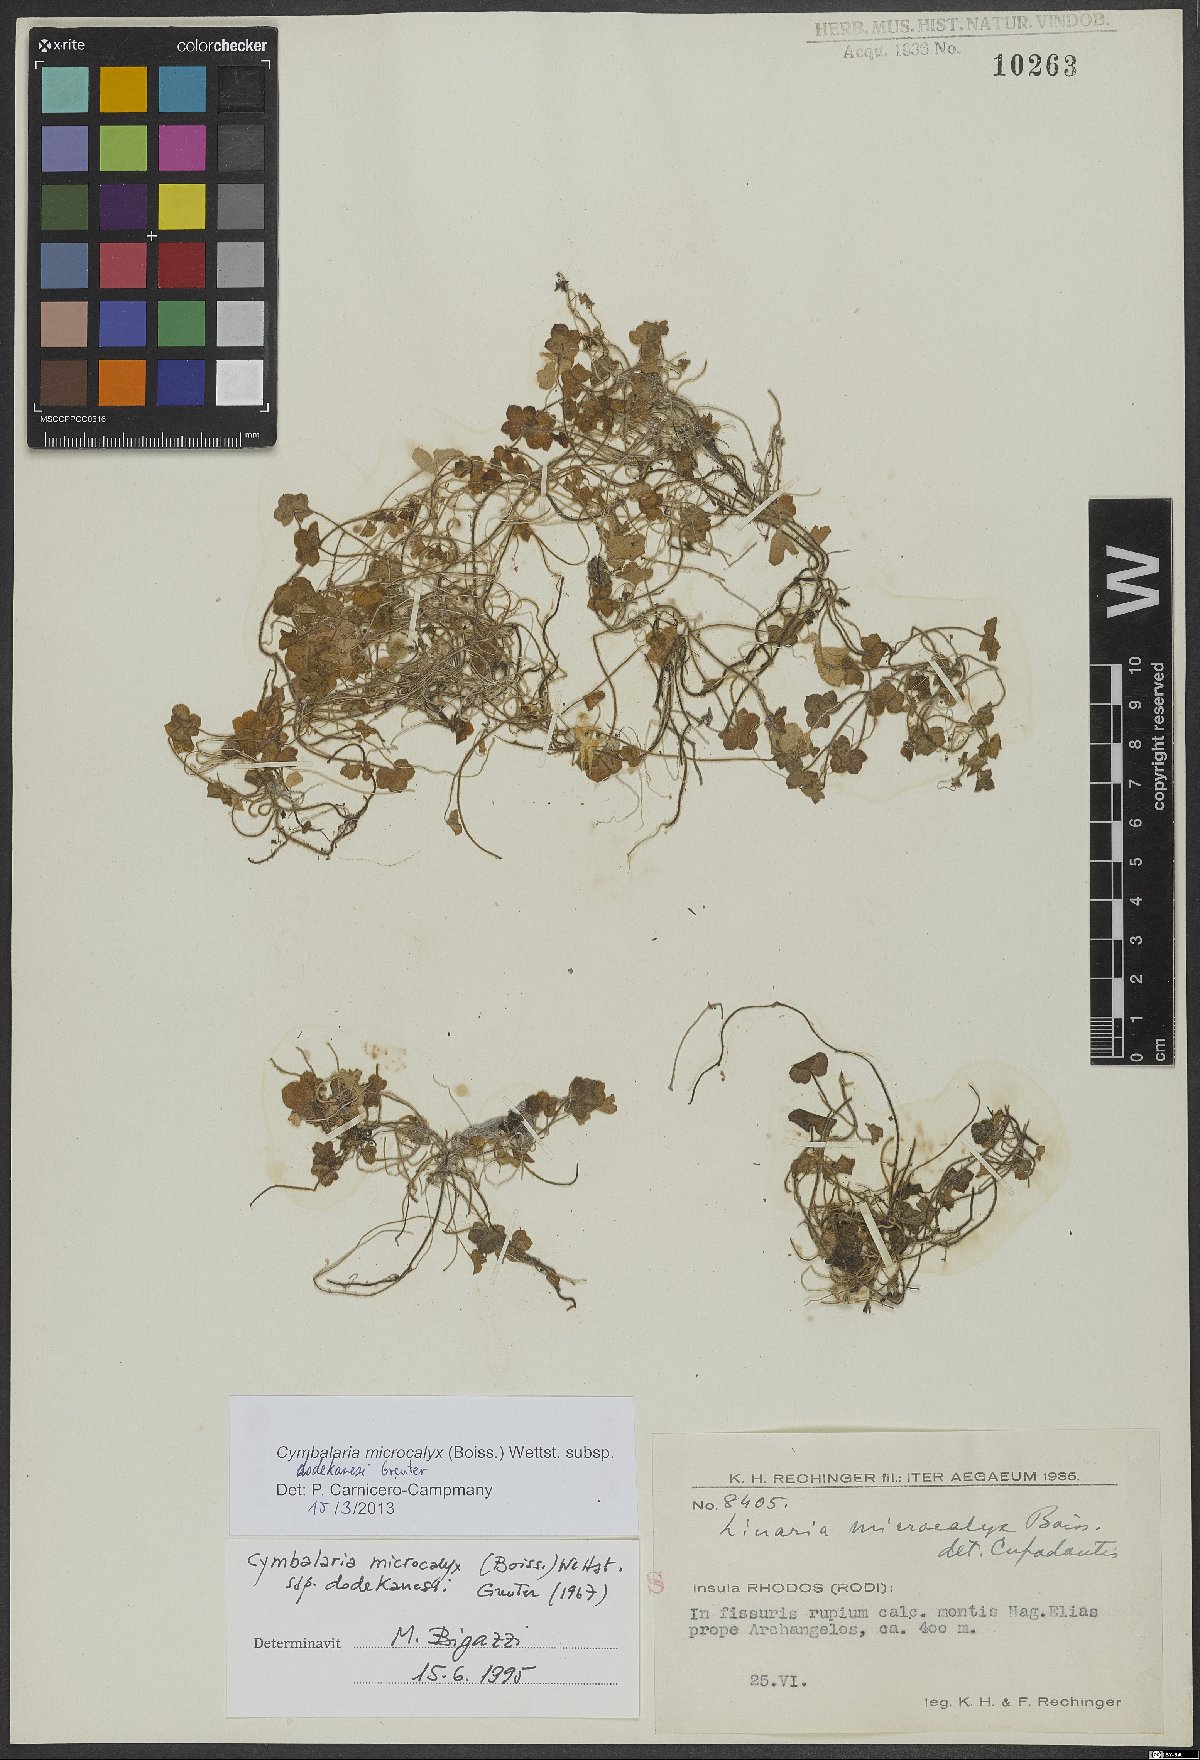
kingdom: Plantae
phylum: Tracheophyta
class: Magnoliopsida
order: Lamiales
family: Plantaginaceae
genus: Cymbalaria
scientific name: Cymbalaria acutiloba
